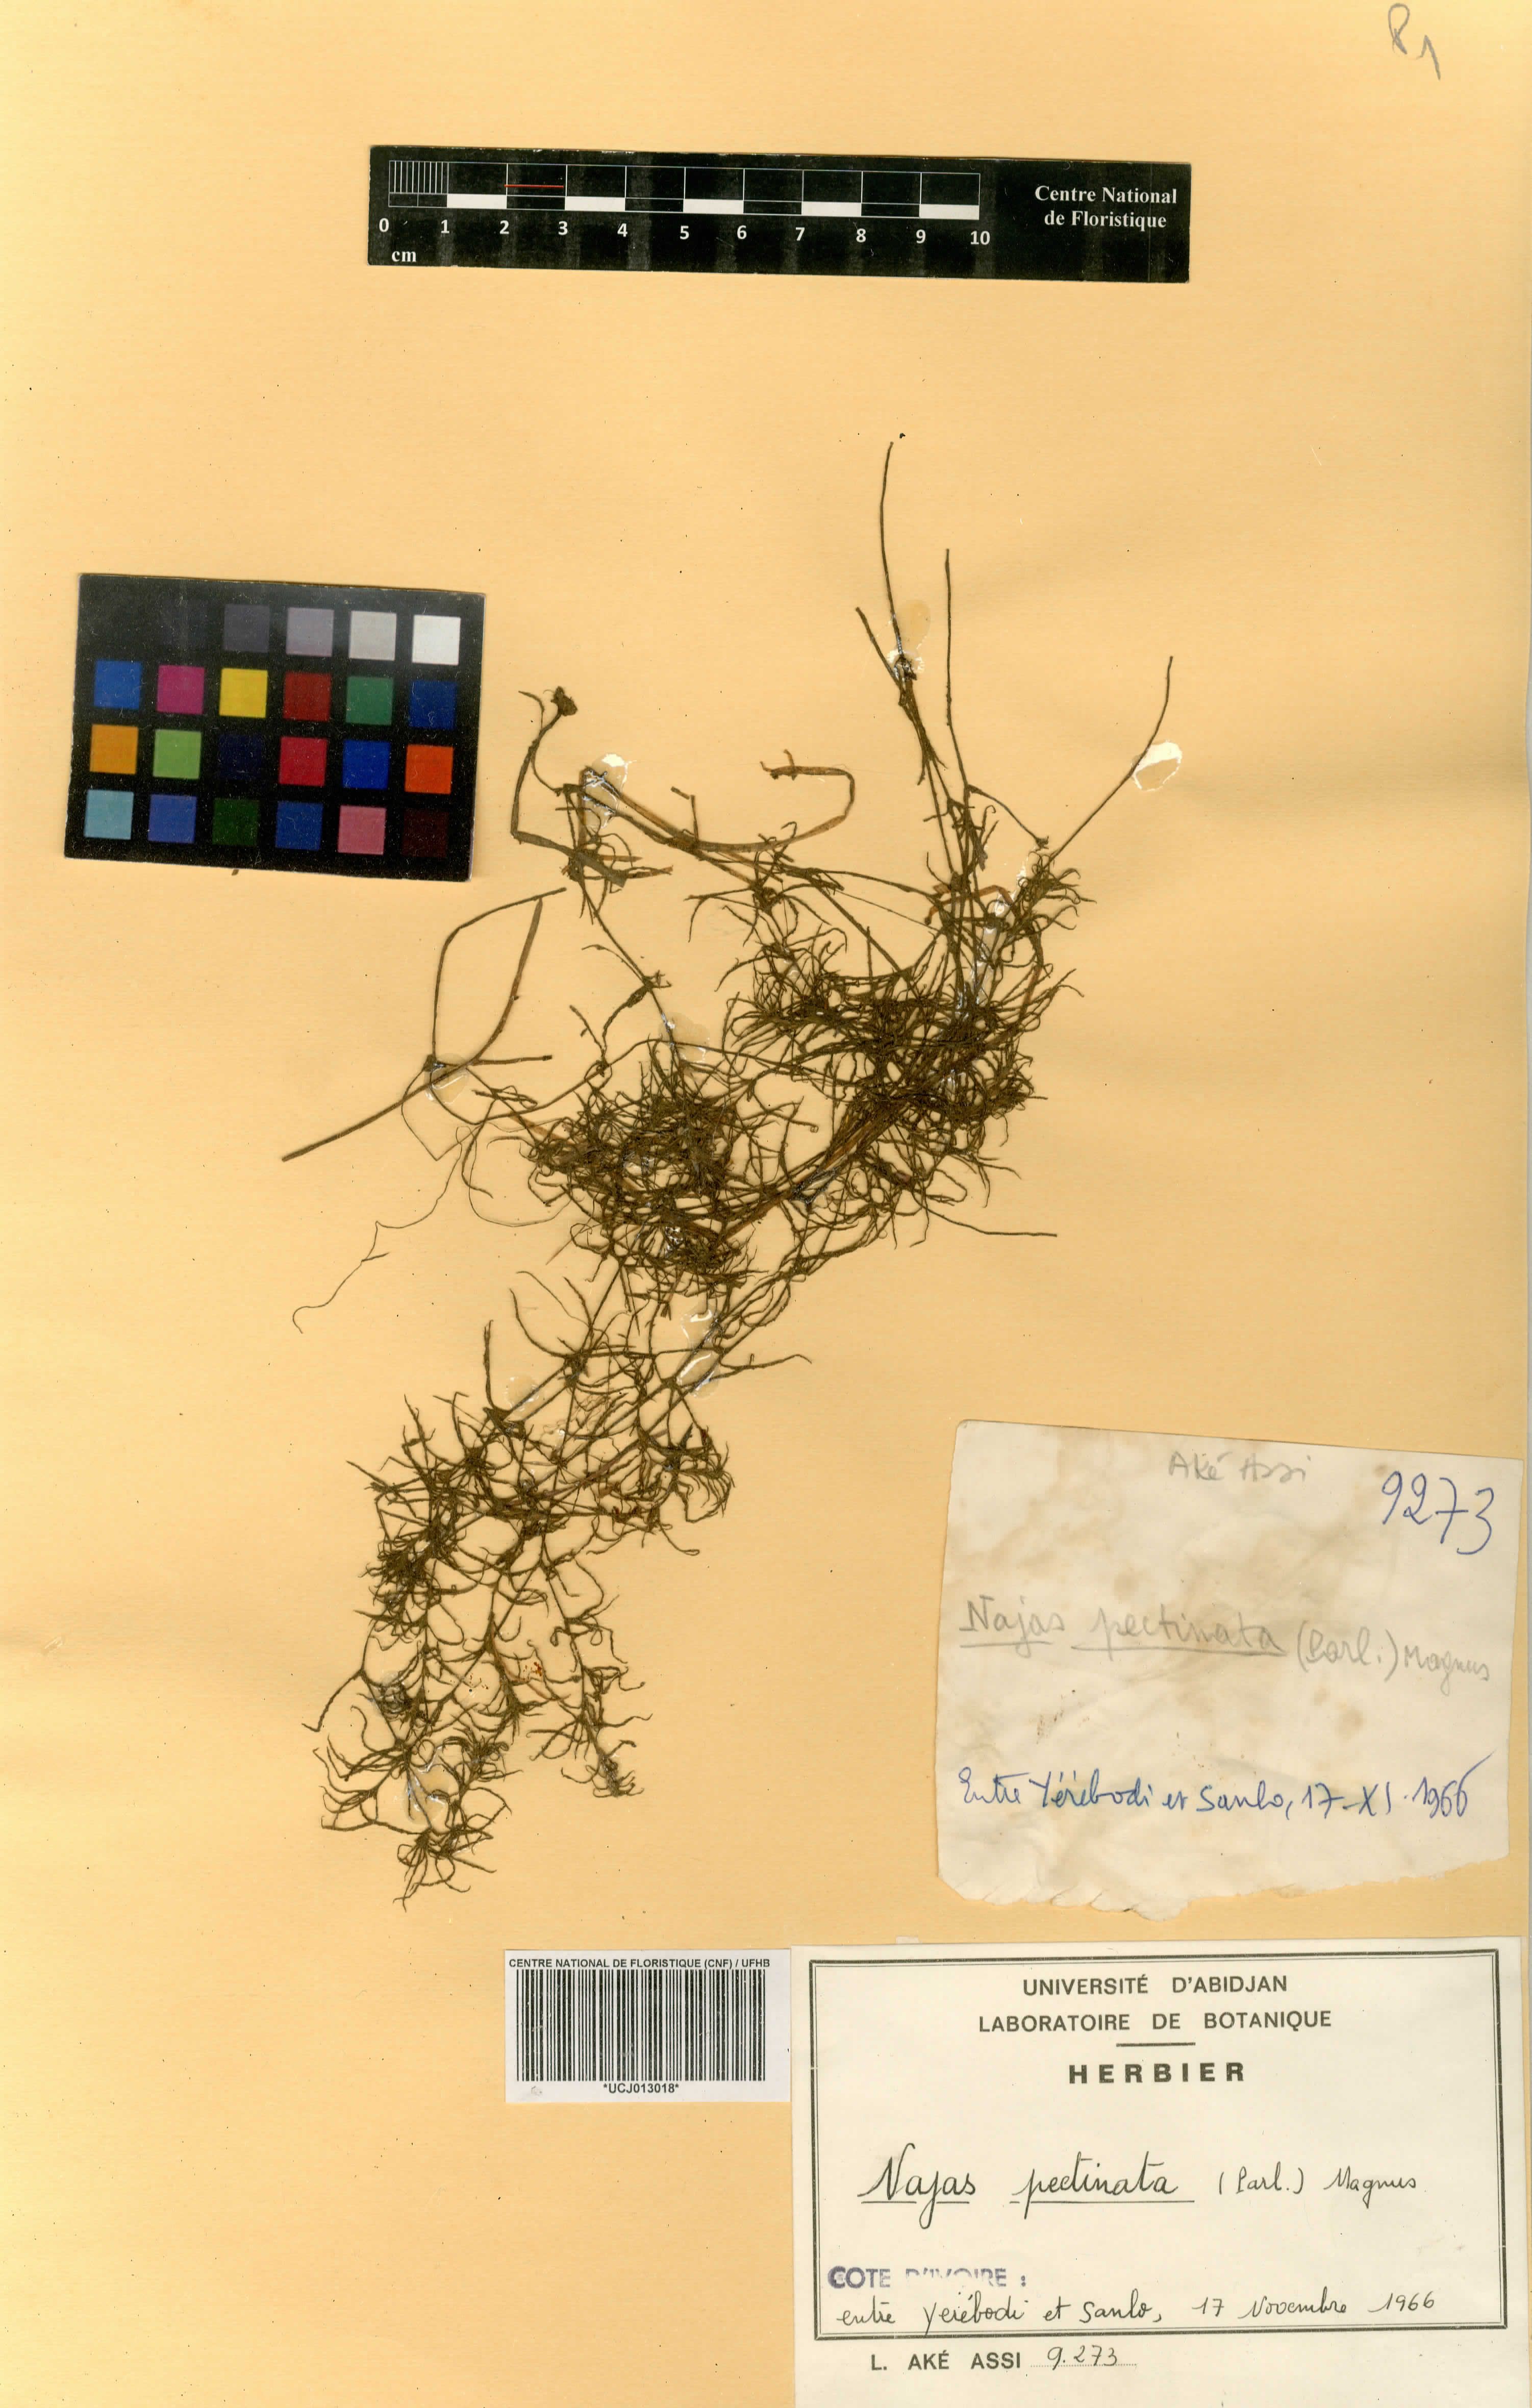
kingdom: Plantae
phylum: Tracheophyta
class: Liliopsida
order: Alismatales
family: Hydrocharitaceae
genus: Najas
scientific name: Najas pectinata
